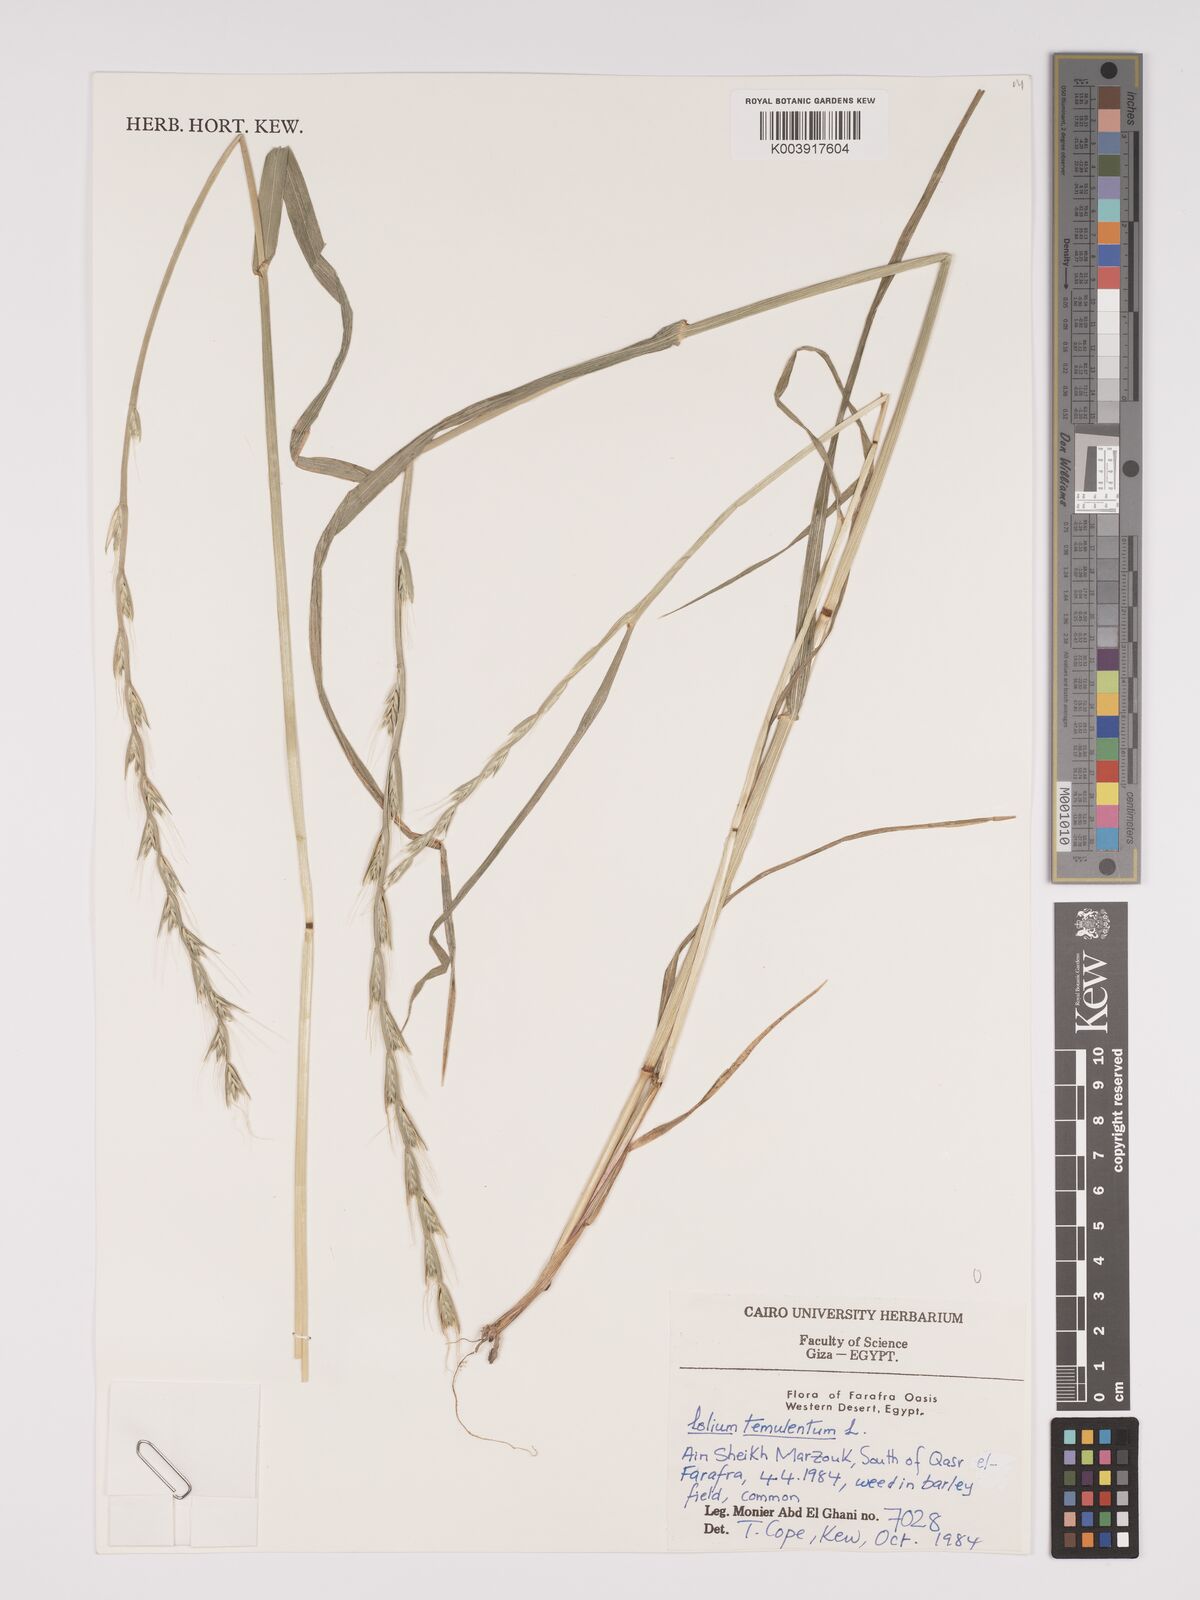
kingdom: Plantae
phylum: Tracheophyta
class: Liliopsida
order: Poales
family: Poaceae
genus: Lolium
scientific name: Lolium temulentum
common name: Darnel
